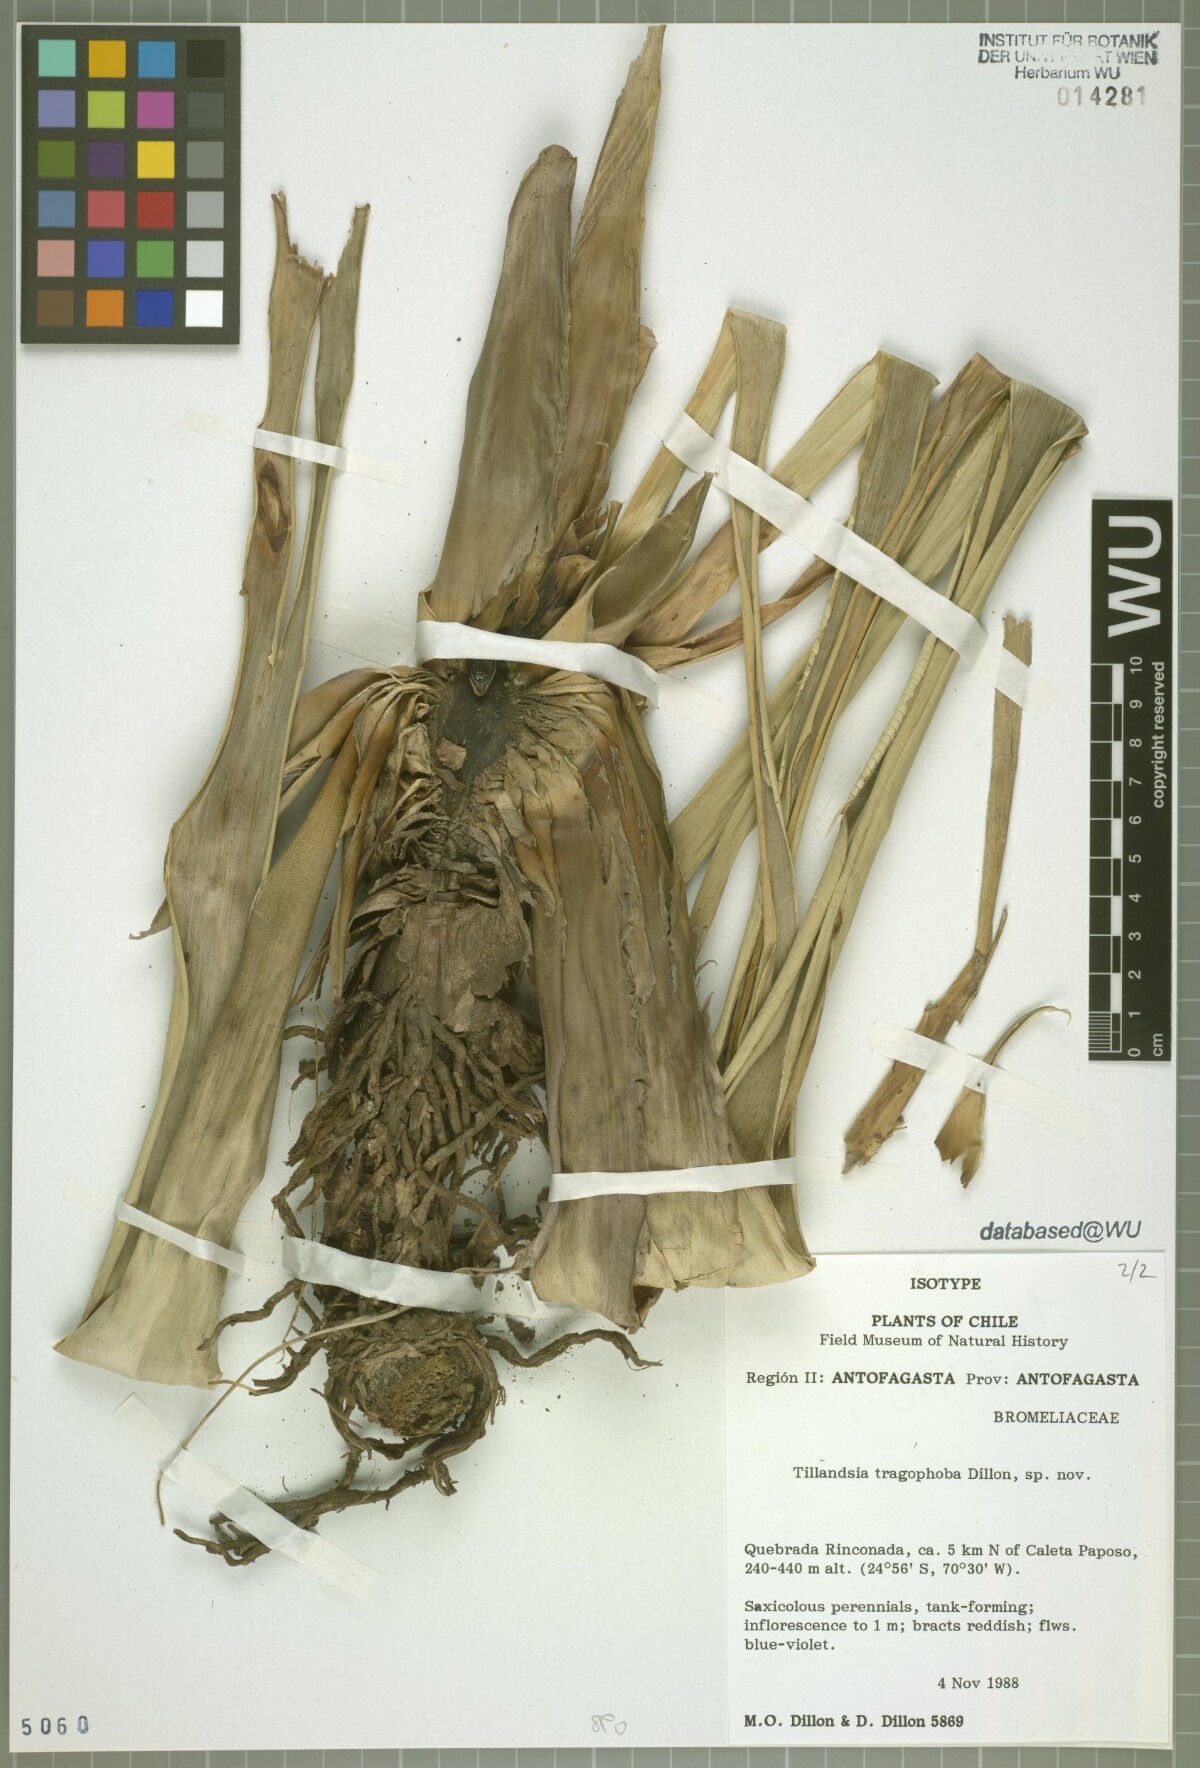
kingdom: Plantae
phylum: Tracheophyta
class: Liliopsida
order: Poales
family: Bromeliaceae
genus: Tillandsia
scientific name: Tillandsia tragophoba
